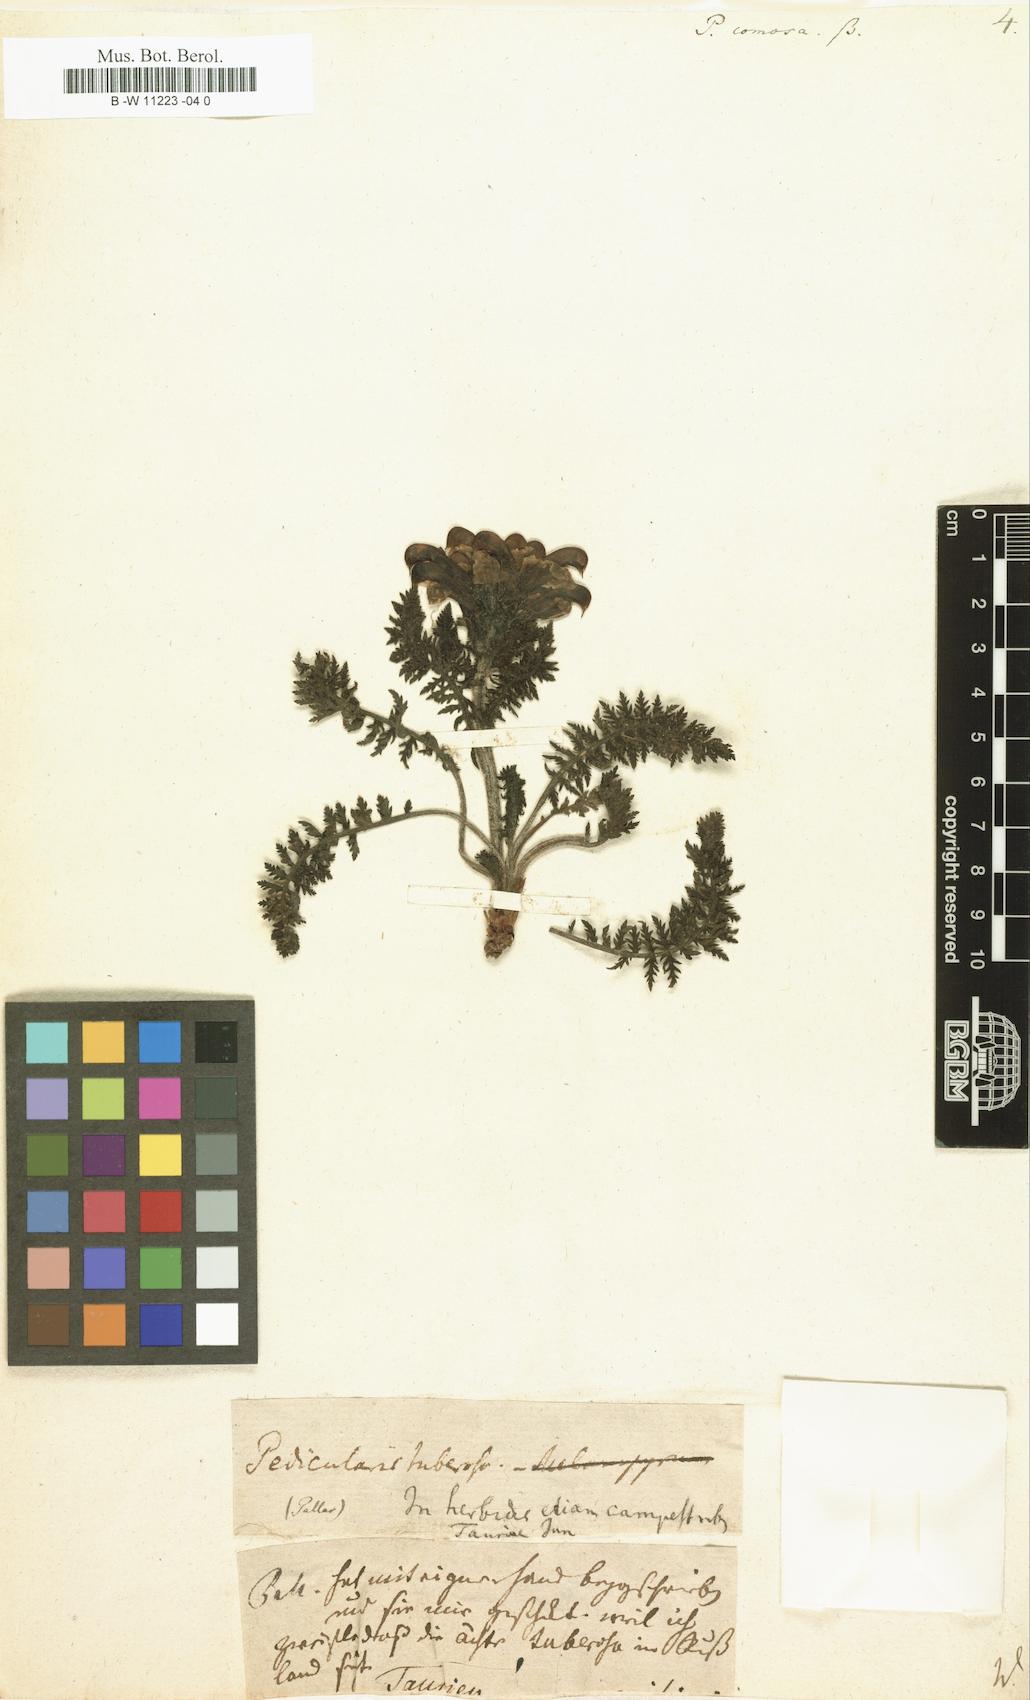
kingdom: Plantae
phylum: Tracheophyta
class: Magnoliopsida
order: Lamiales
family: Orobanchaceae
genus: Pedicularis
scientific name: Pedicularis comosa
